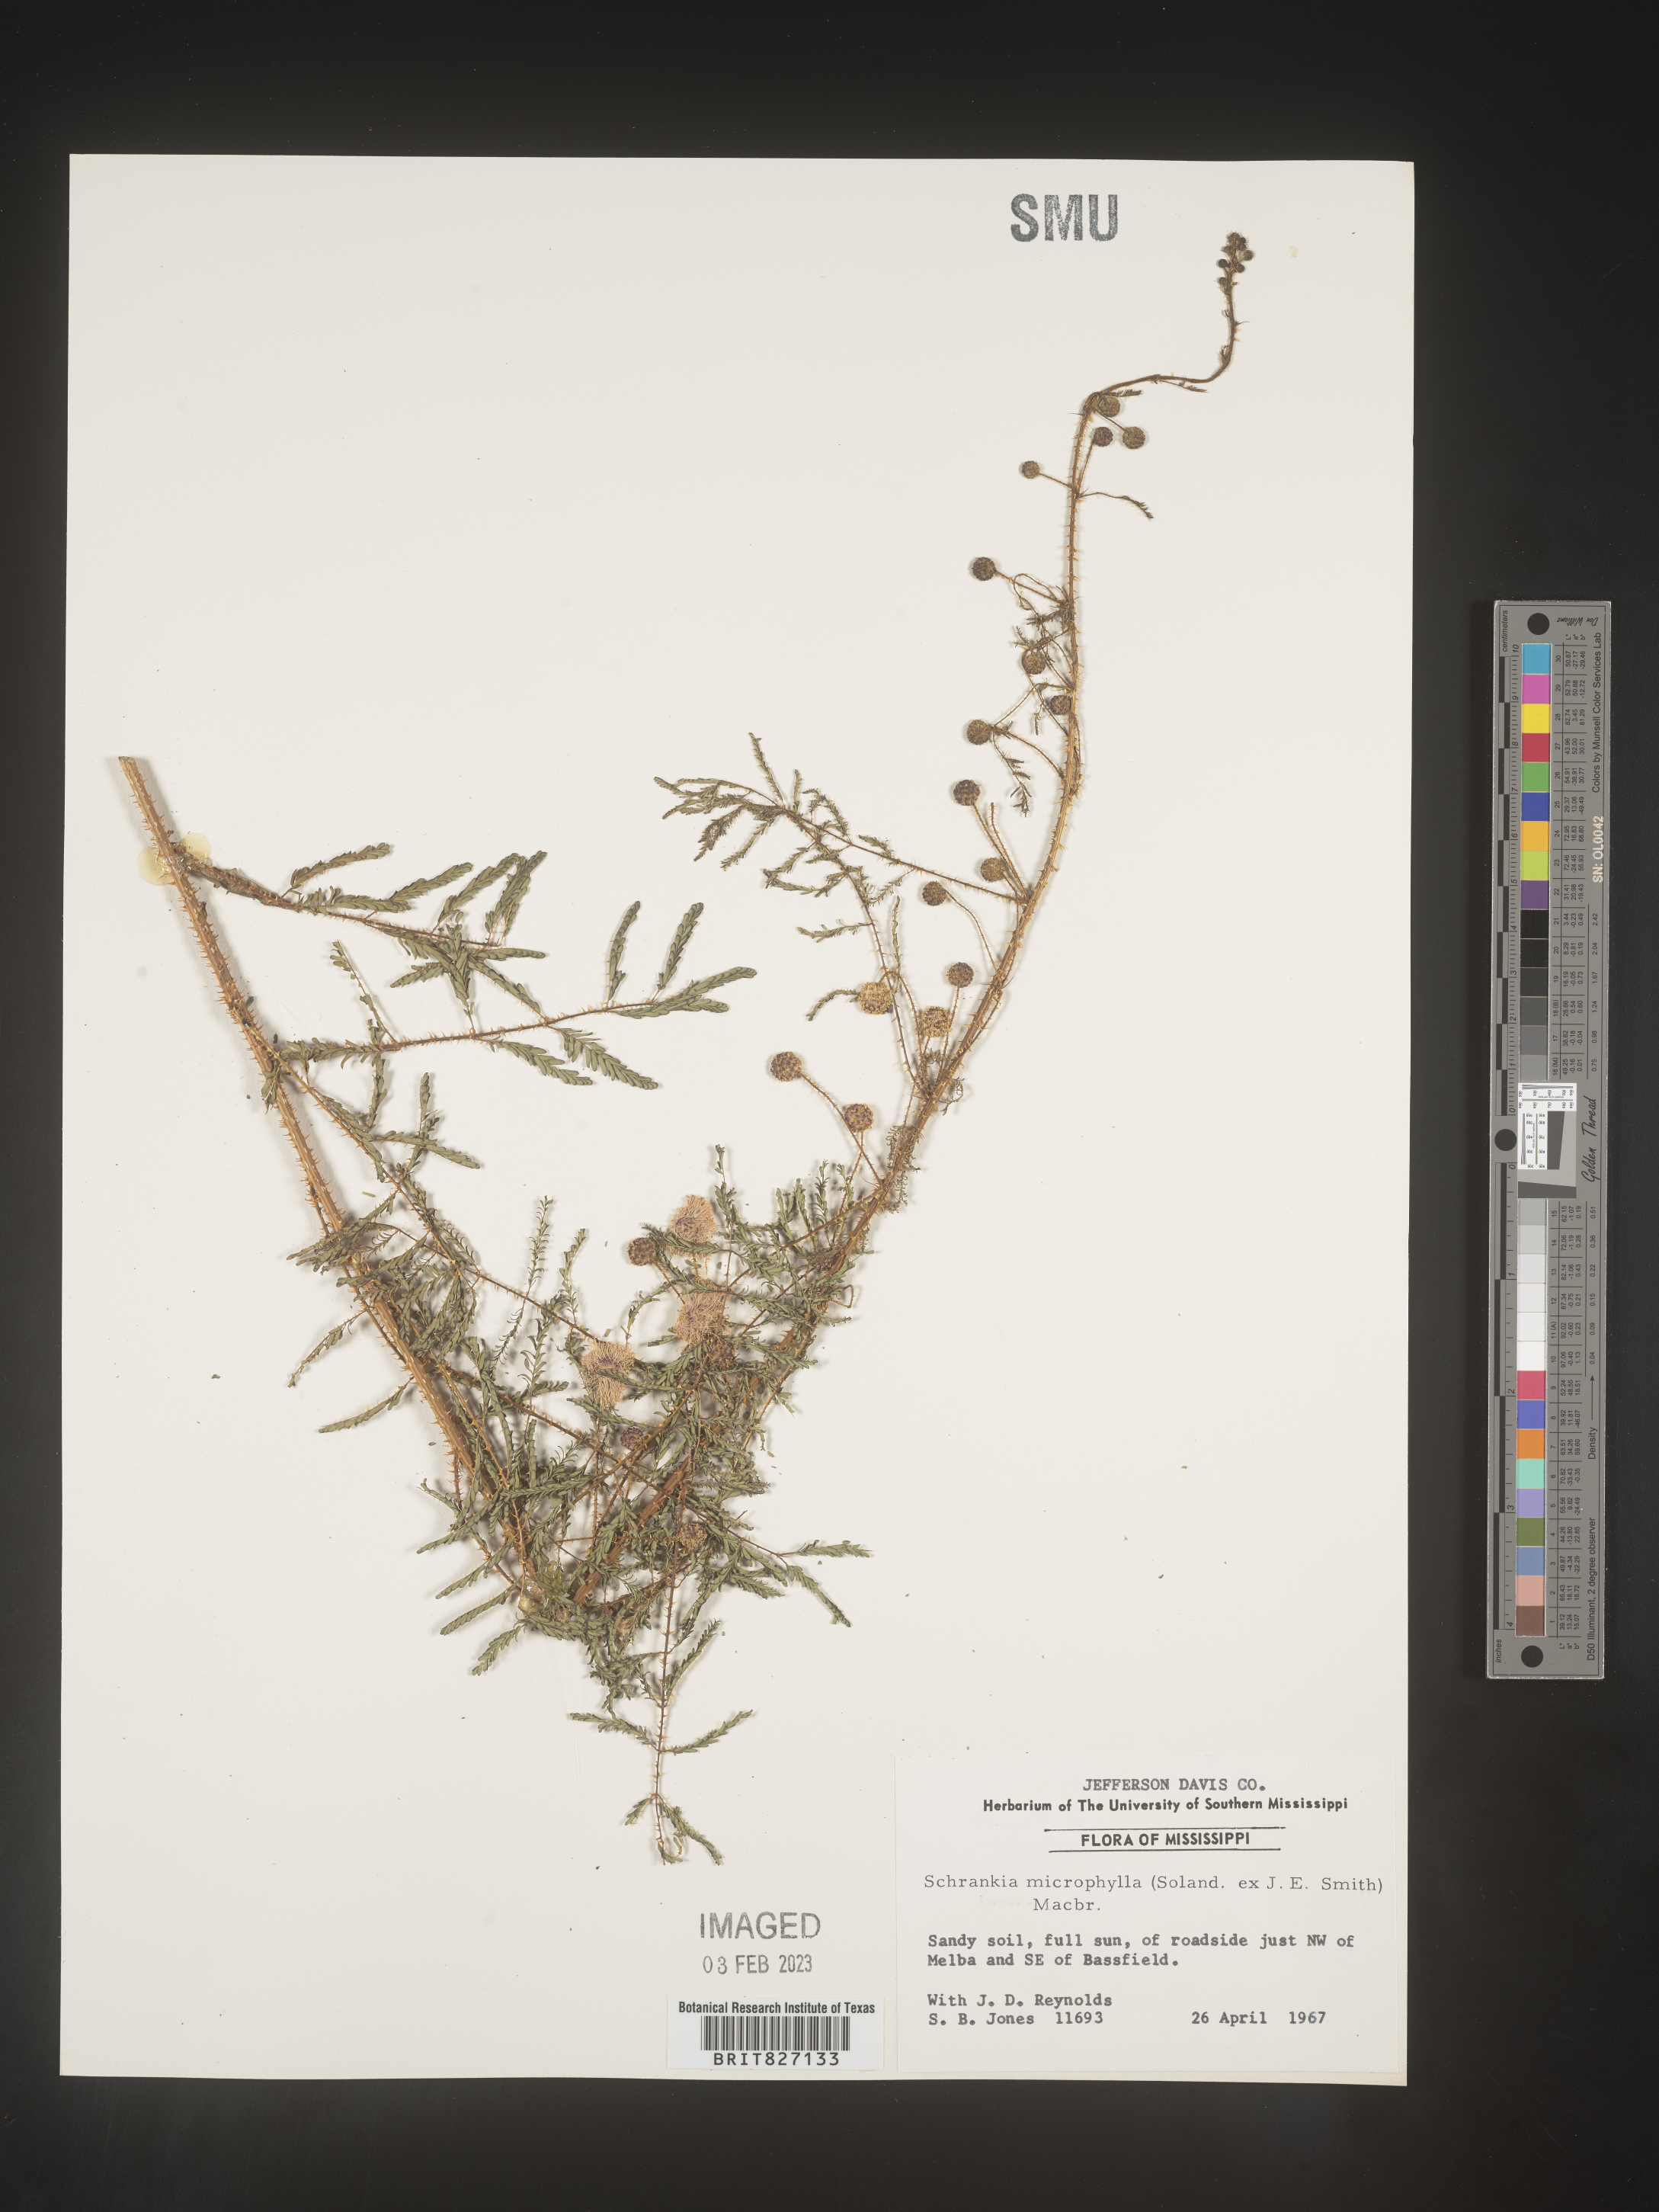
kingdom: Plantae
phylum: Tracheophyta
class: Magnoliopsida
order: Fabales
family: Fabaceae
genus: Mimosa
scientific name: Mimosa quadrivalvis
